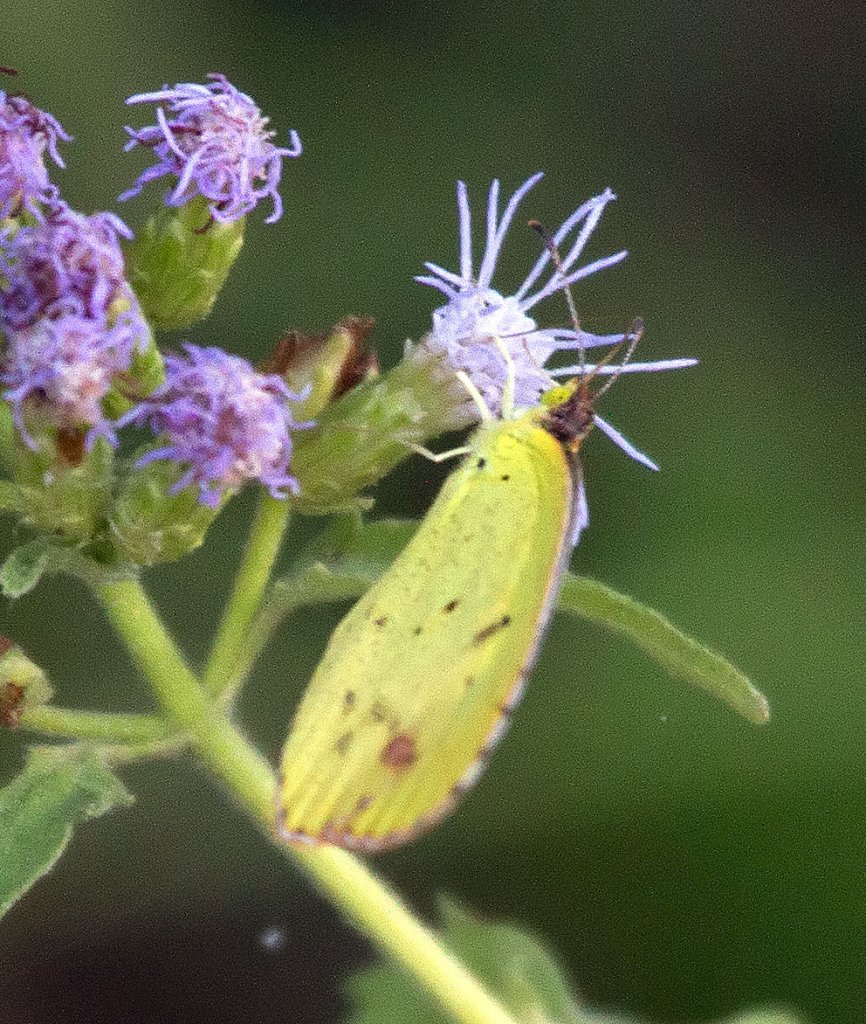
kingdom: Animalia
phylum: Arthropoda
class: Insecta
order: Lepidoptera
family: Pieridae
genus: Pyrisitia
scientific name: Pyrisitia lisa
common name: Little Yellow
